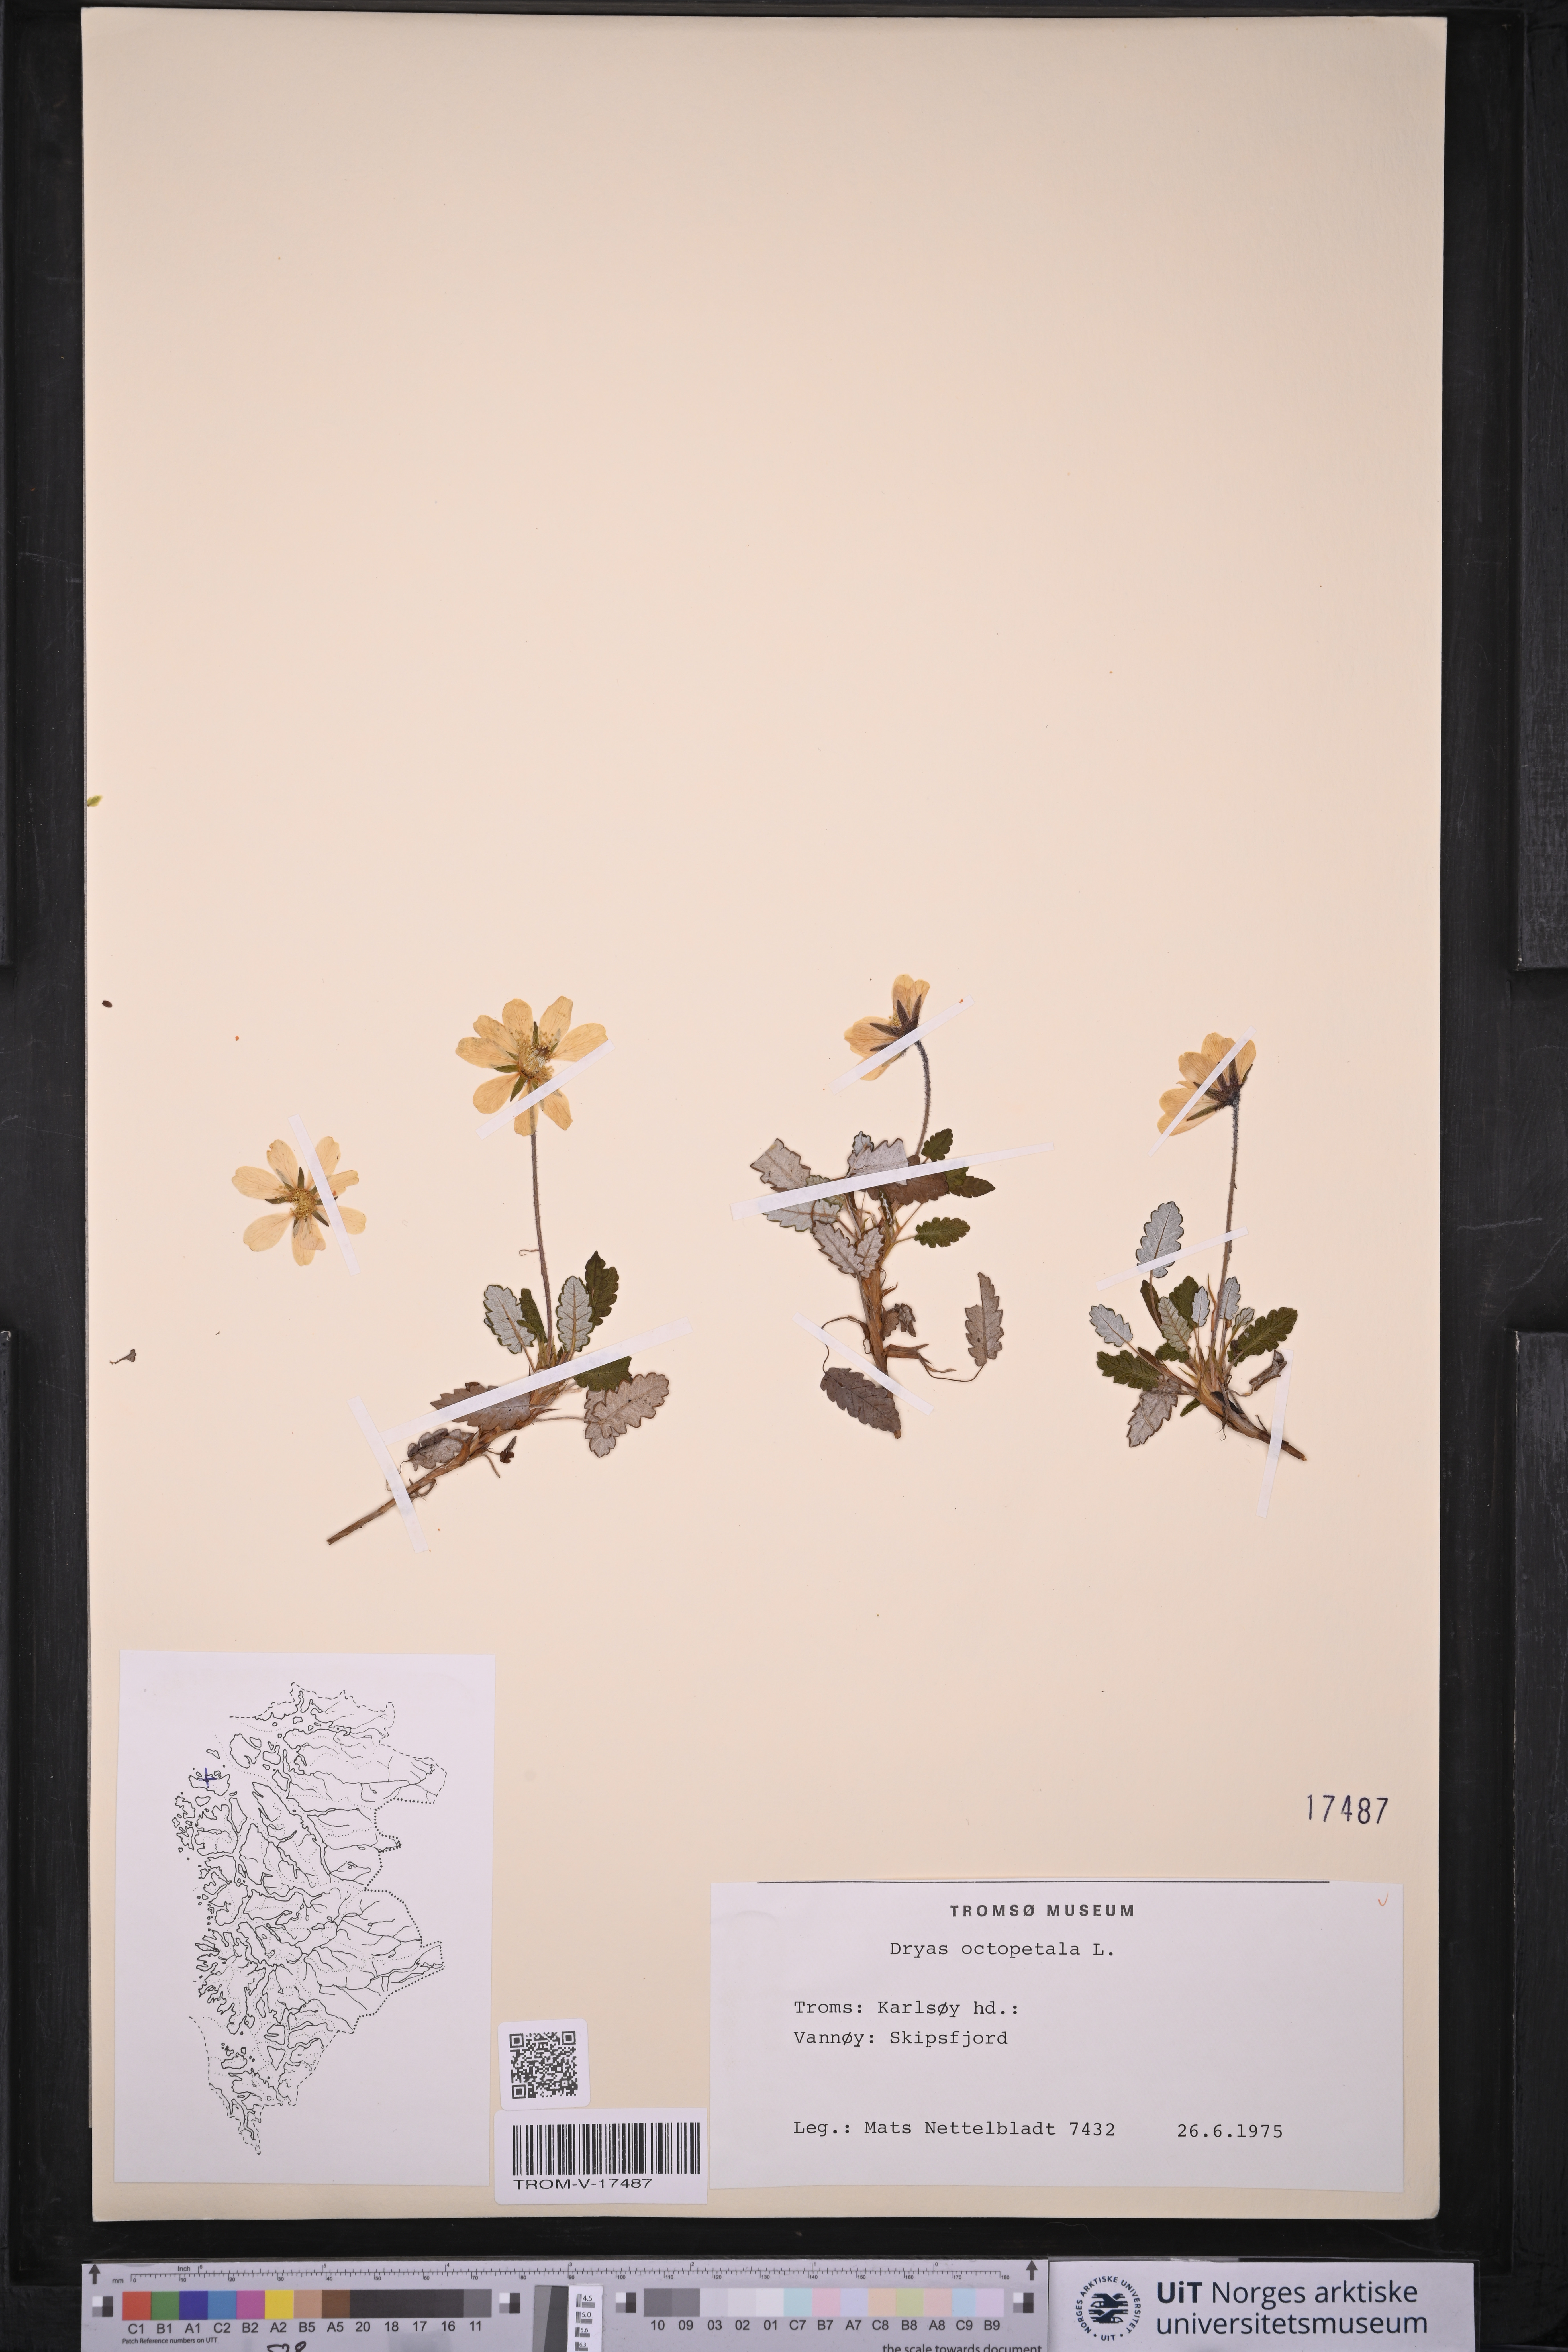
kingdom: Plantae
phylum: Tracheophyta
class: Magnoliopsida
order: Rosales
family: Rosaceae
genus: Dryas
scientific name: Dryas octopetala
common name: Eight-petal mountain-avens
